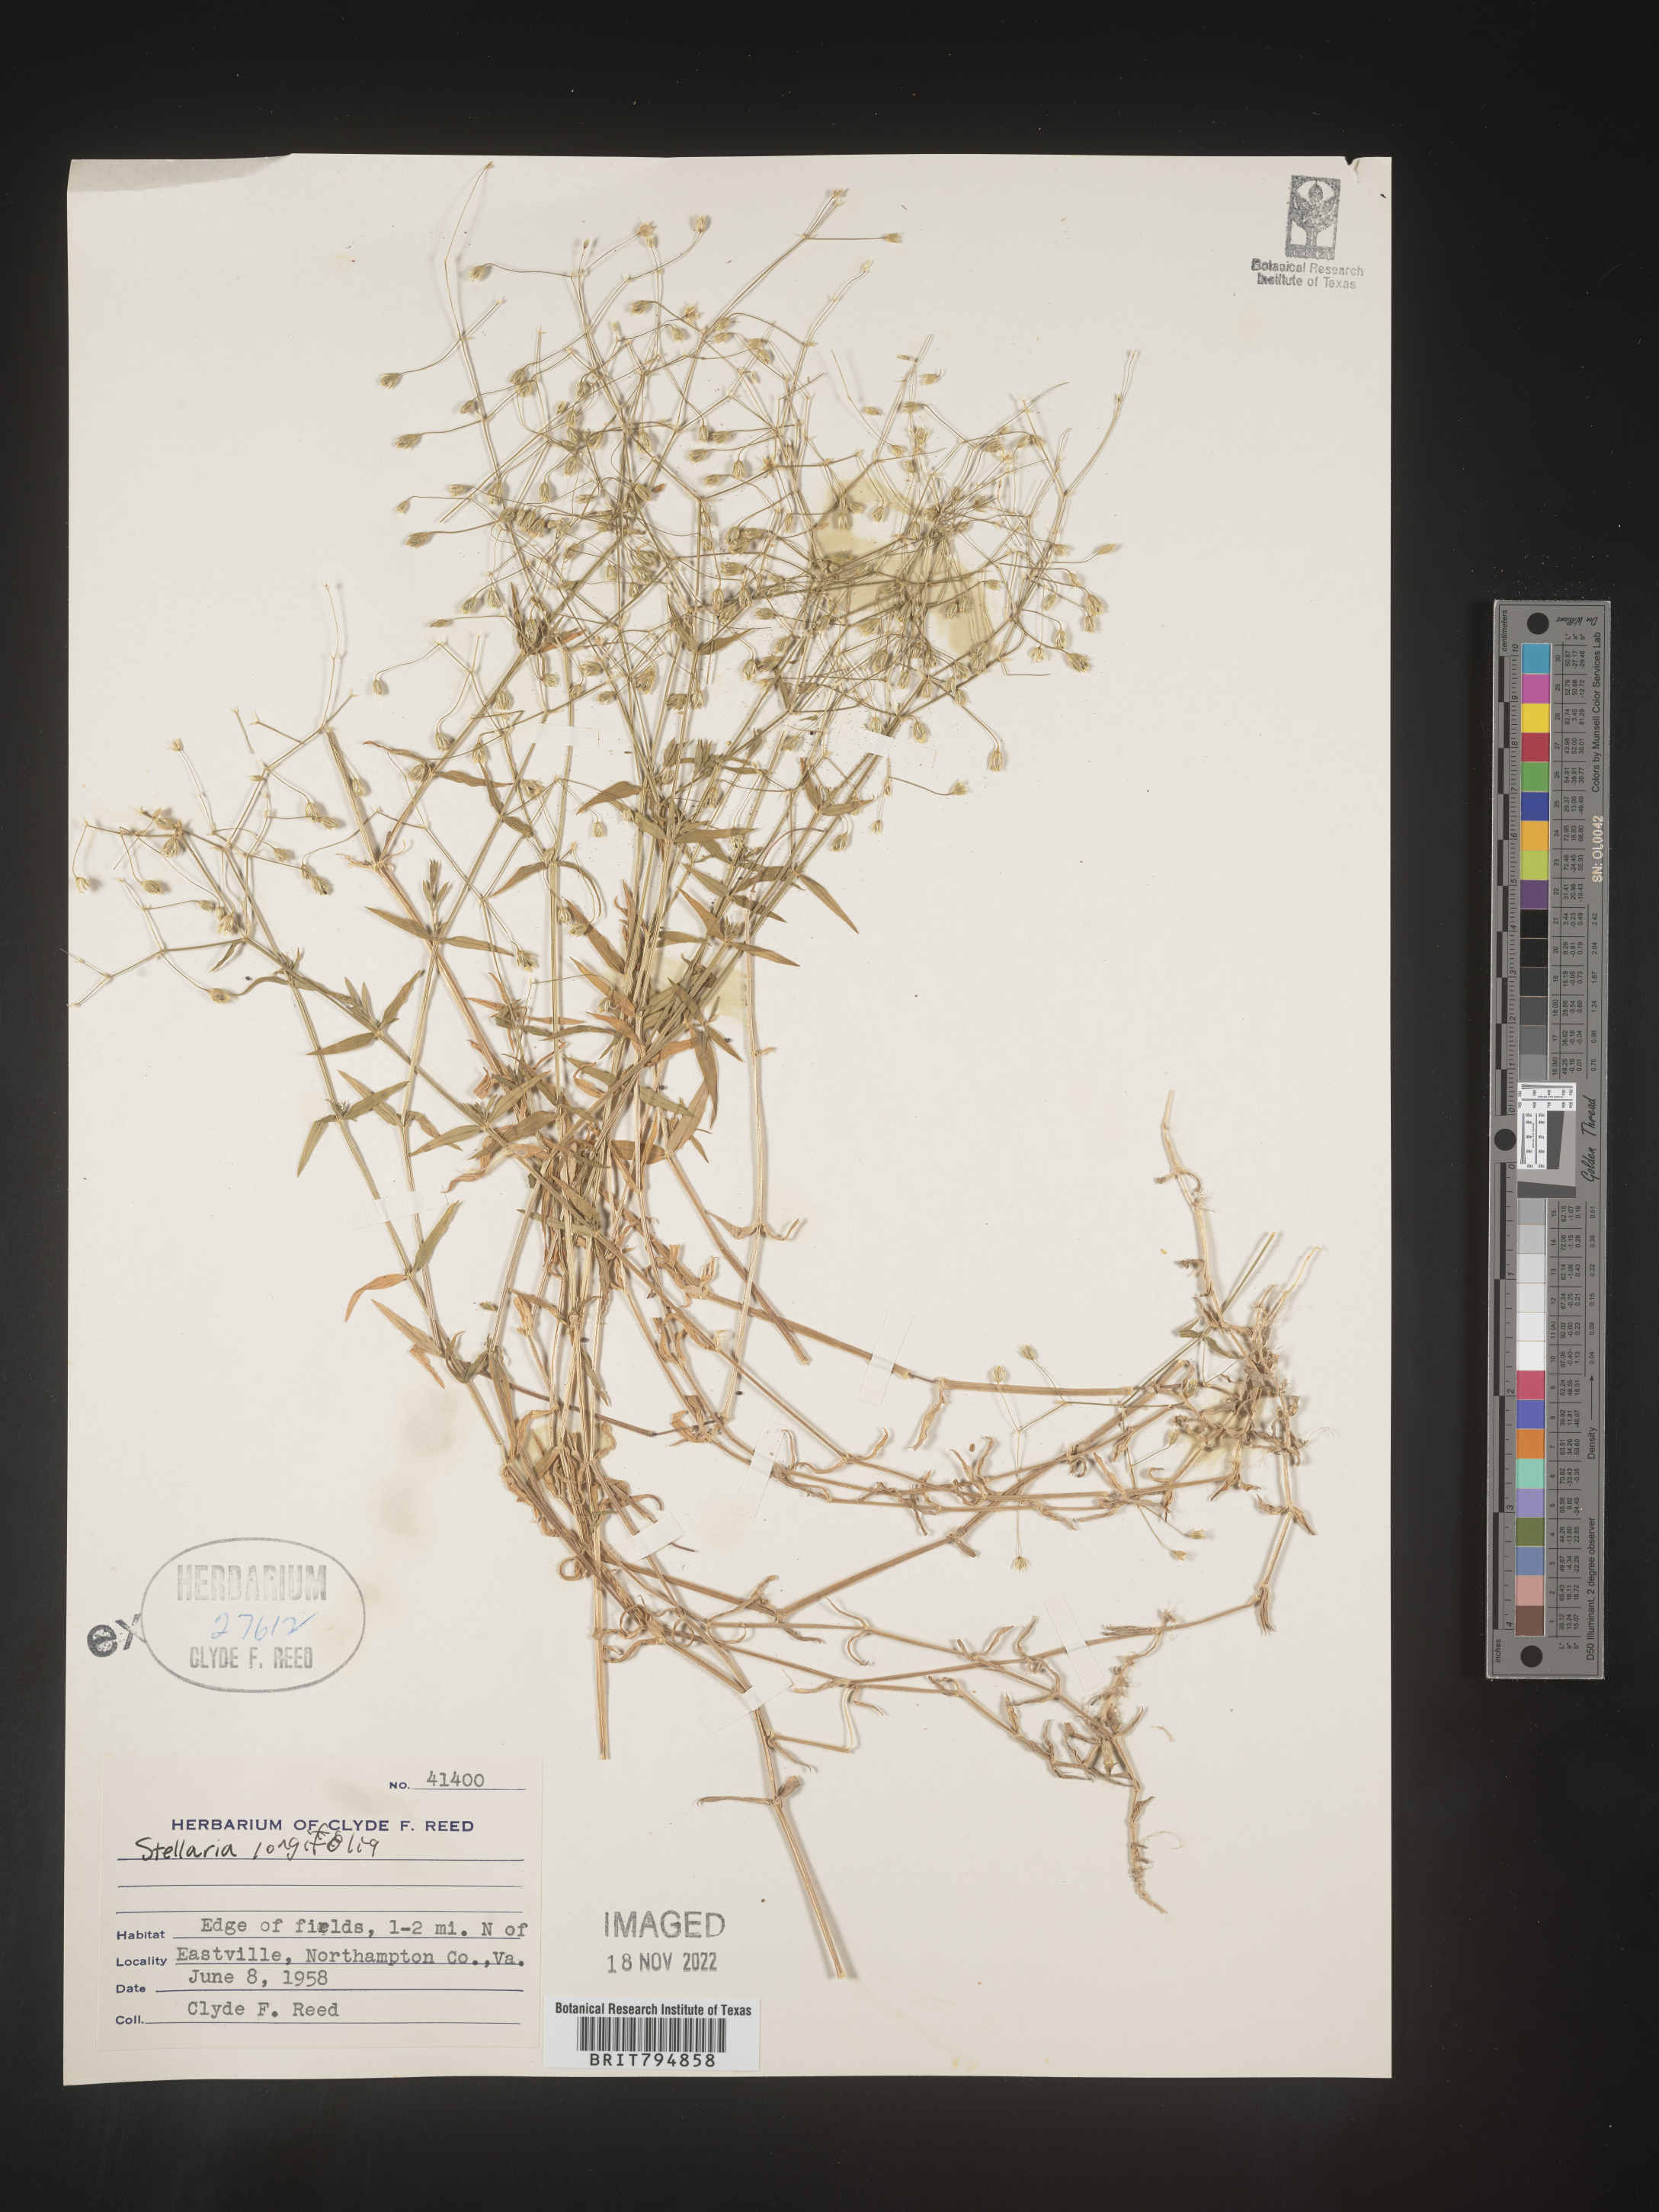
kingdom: Plantae
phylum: Tracheophyta
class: Magnoliopsida
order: Caryophyllales
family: Caryophyllaceae
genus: Stellaria
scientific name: Stellaria longifolia
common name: Long-leaved chickweed
